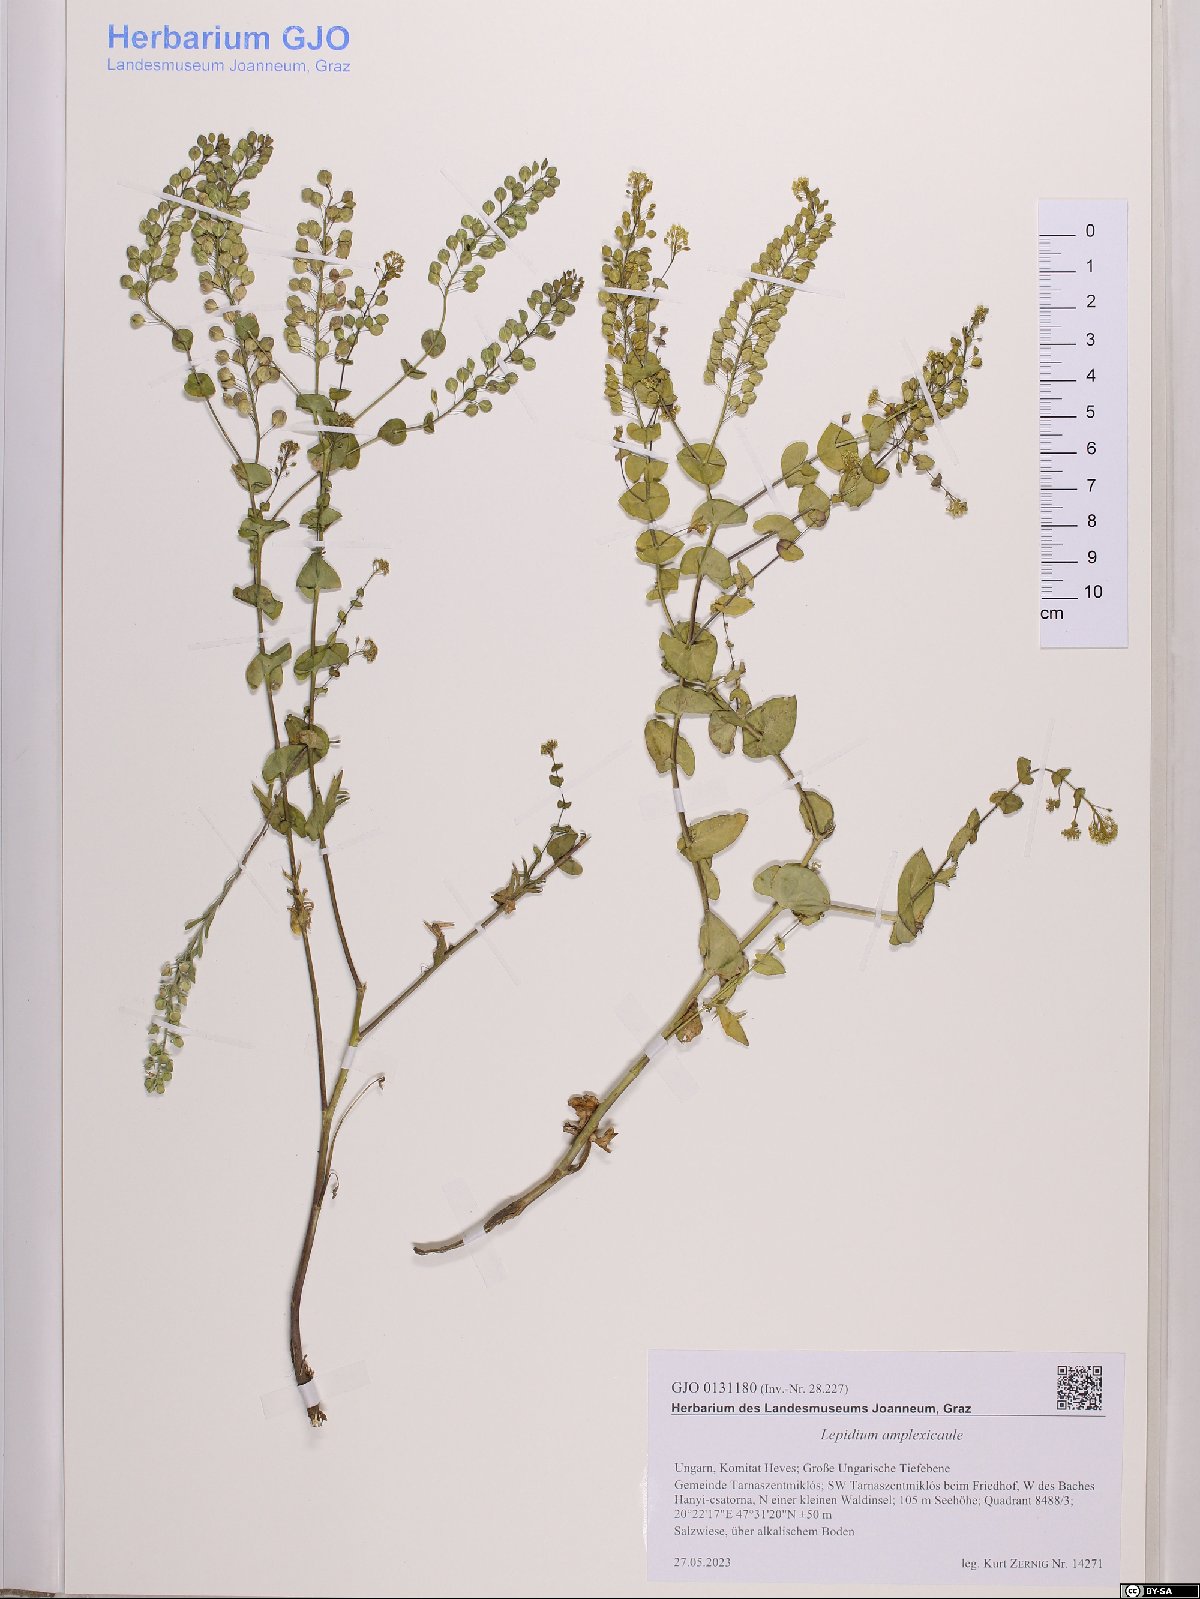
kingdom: Plantae
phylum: Tracheophyta
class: Magnoliopsida
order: Brassicales
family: Brassicaceae
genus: Lepidium
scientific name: Lepidium amplexicaule
